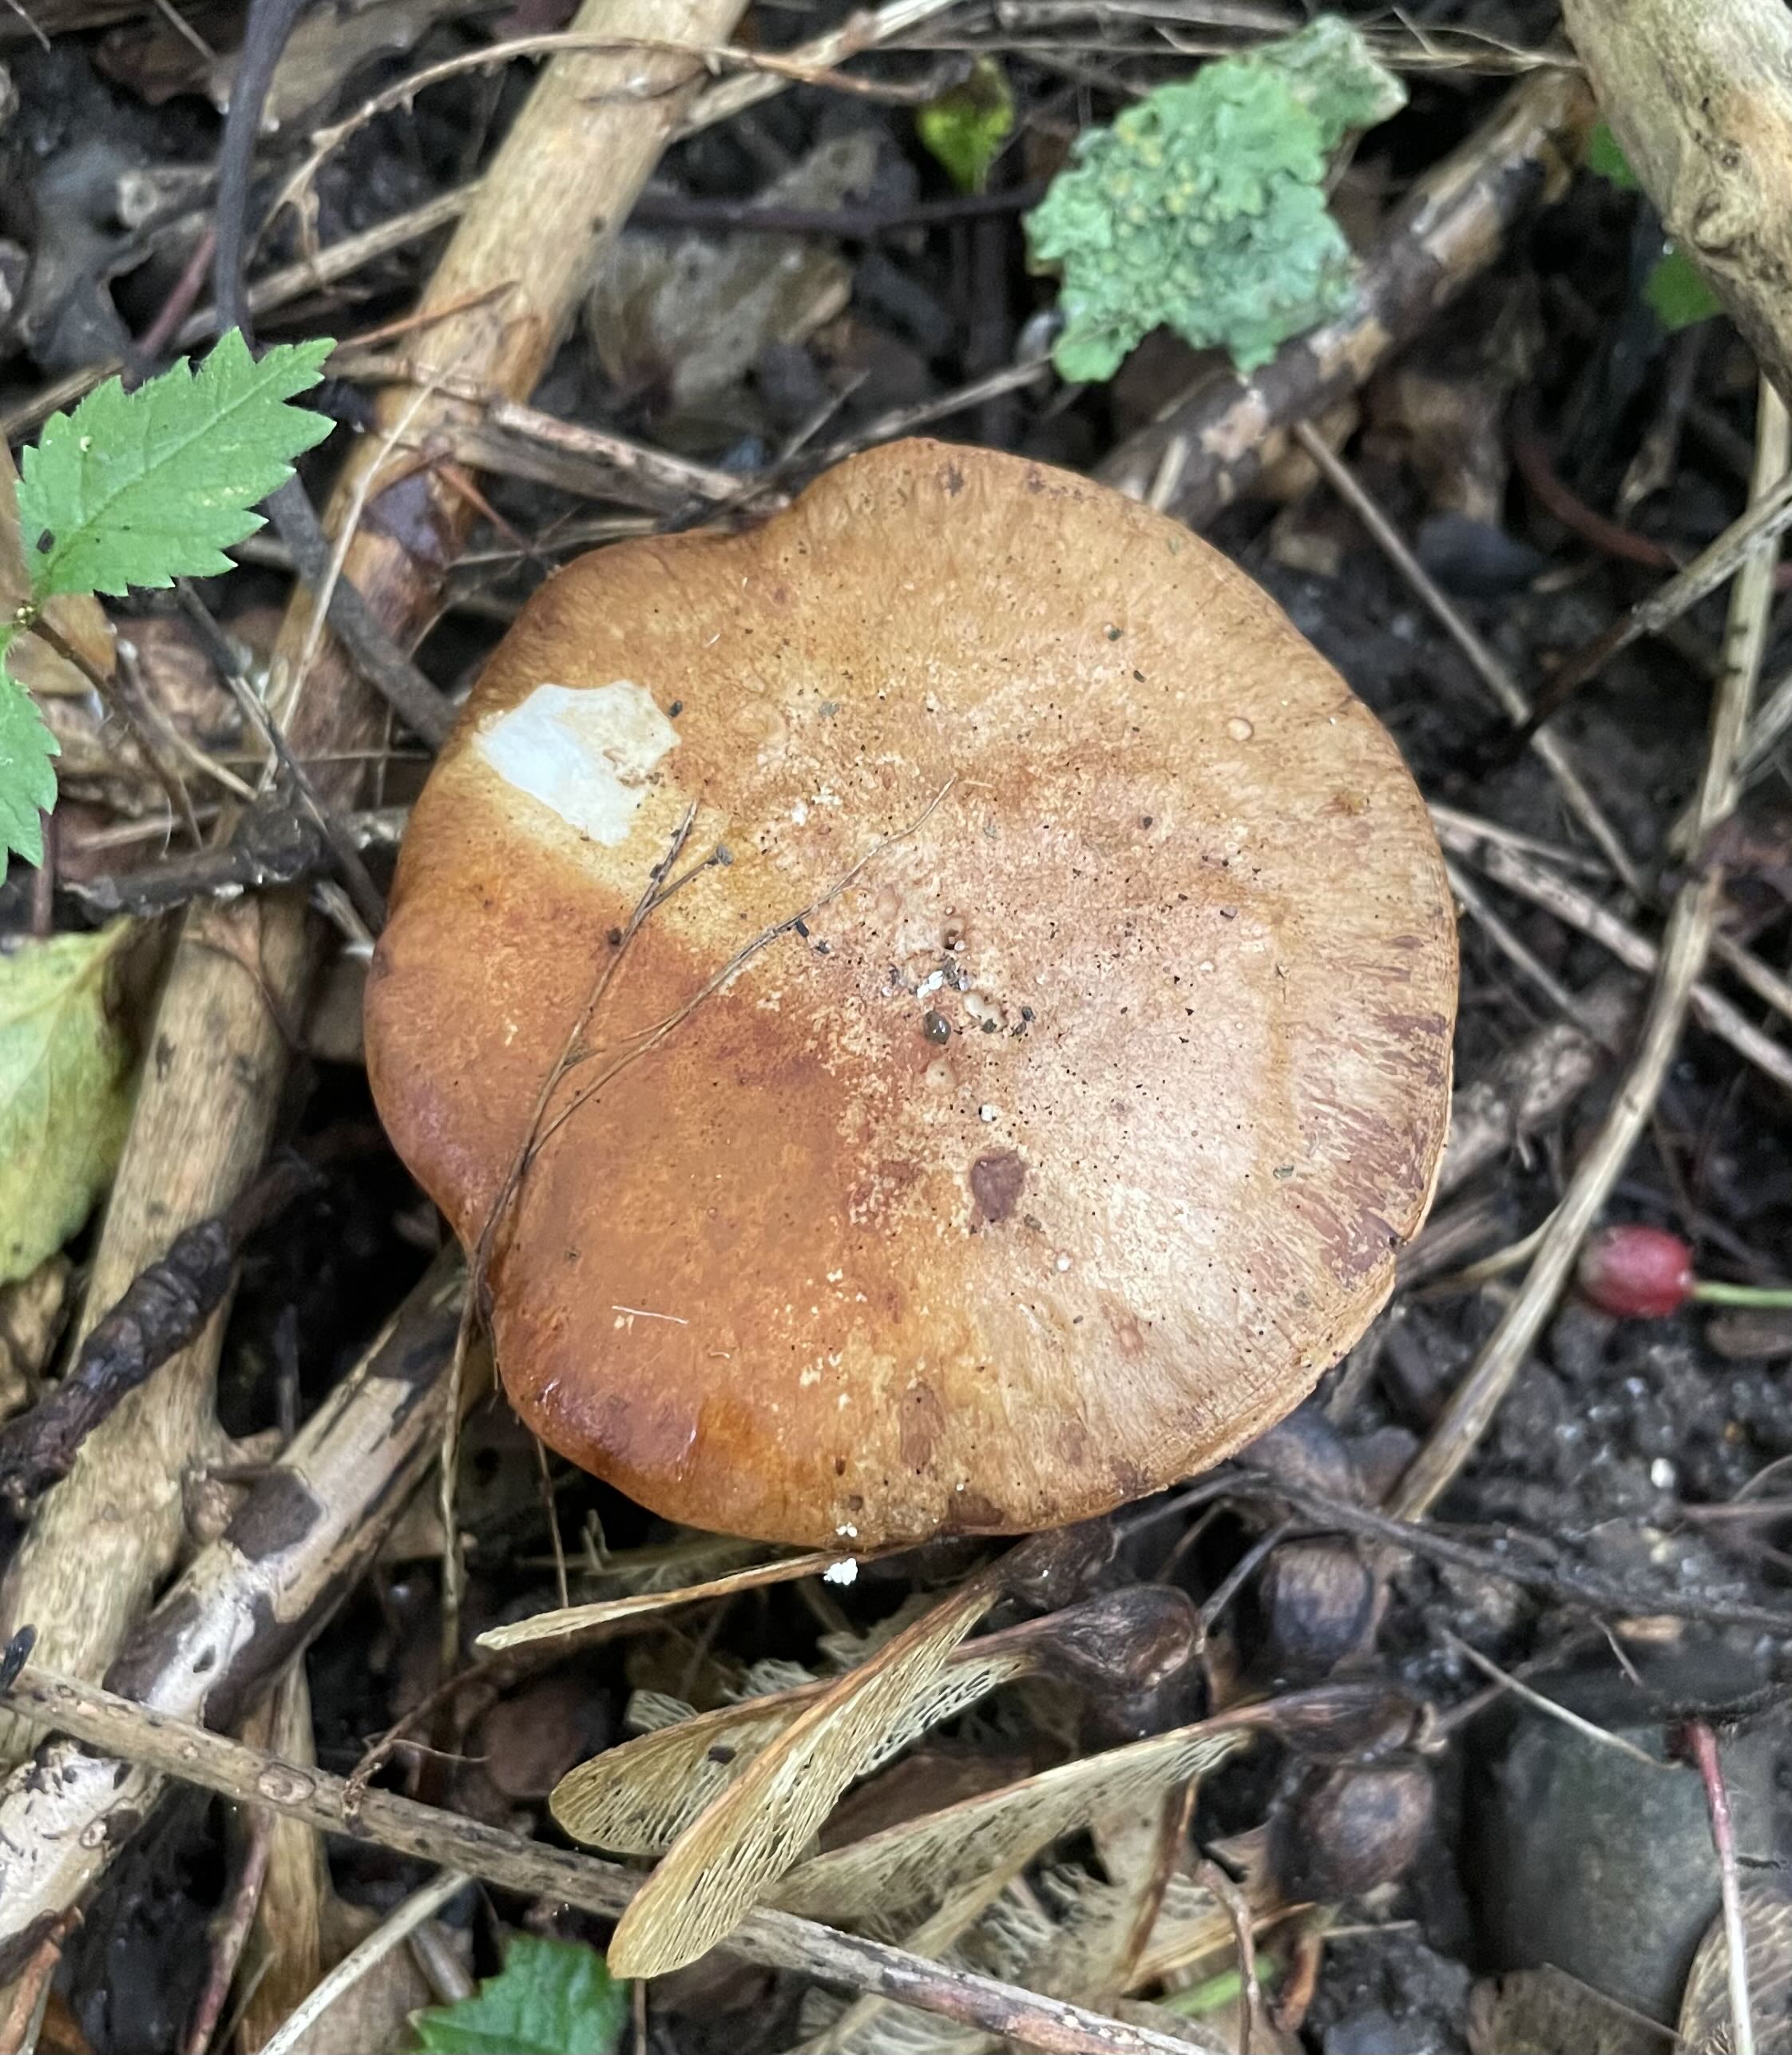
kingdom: Fungi
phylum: Basidiomycota
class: Agaricomycetes
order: Agaricales
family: Cortinariaceae
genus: Cortinarius
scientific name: Cortinarius
